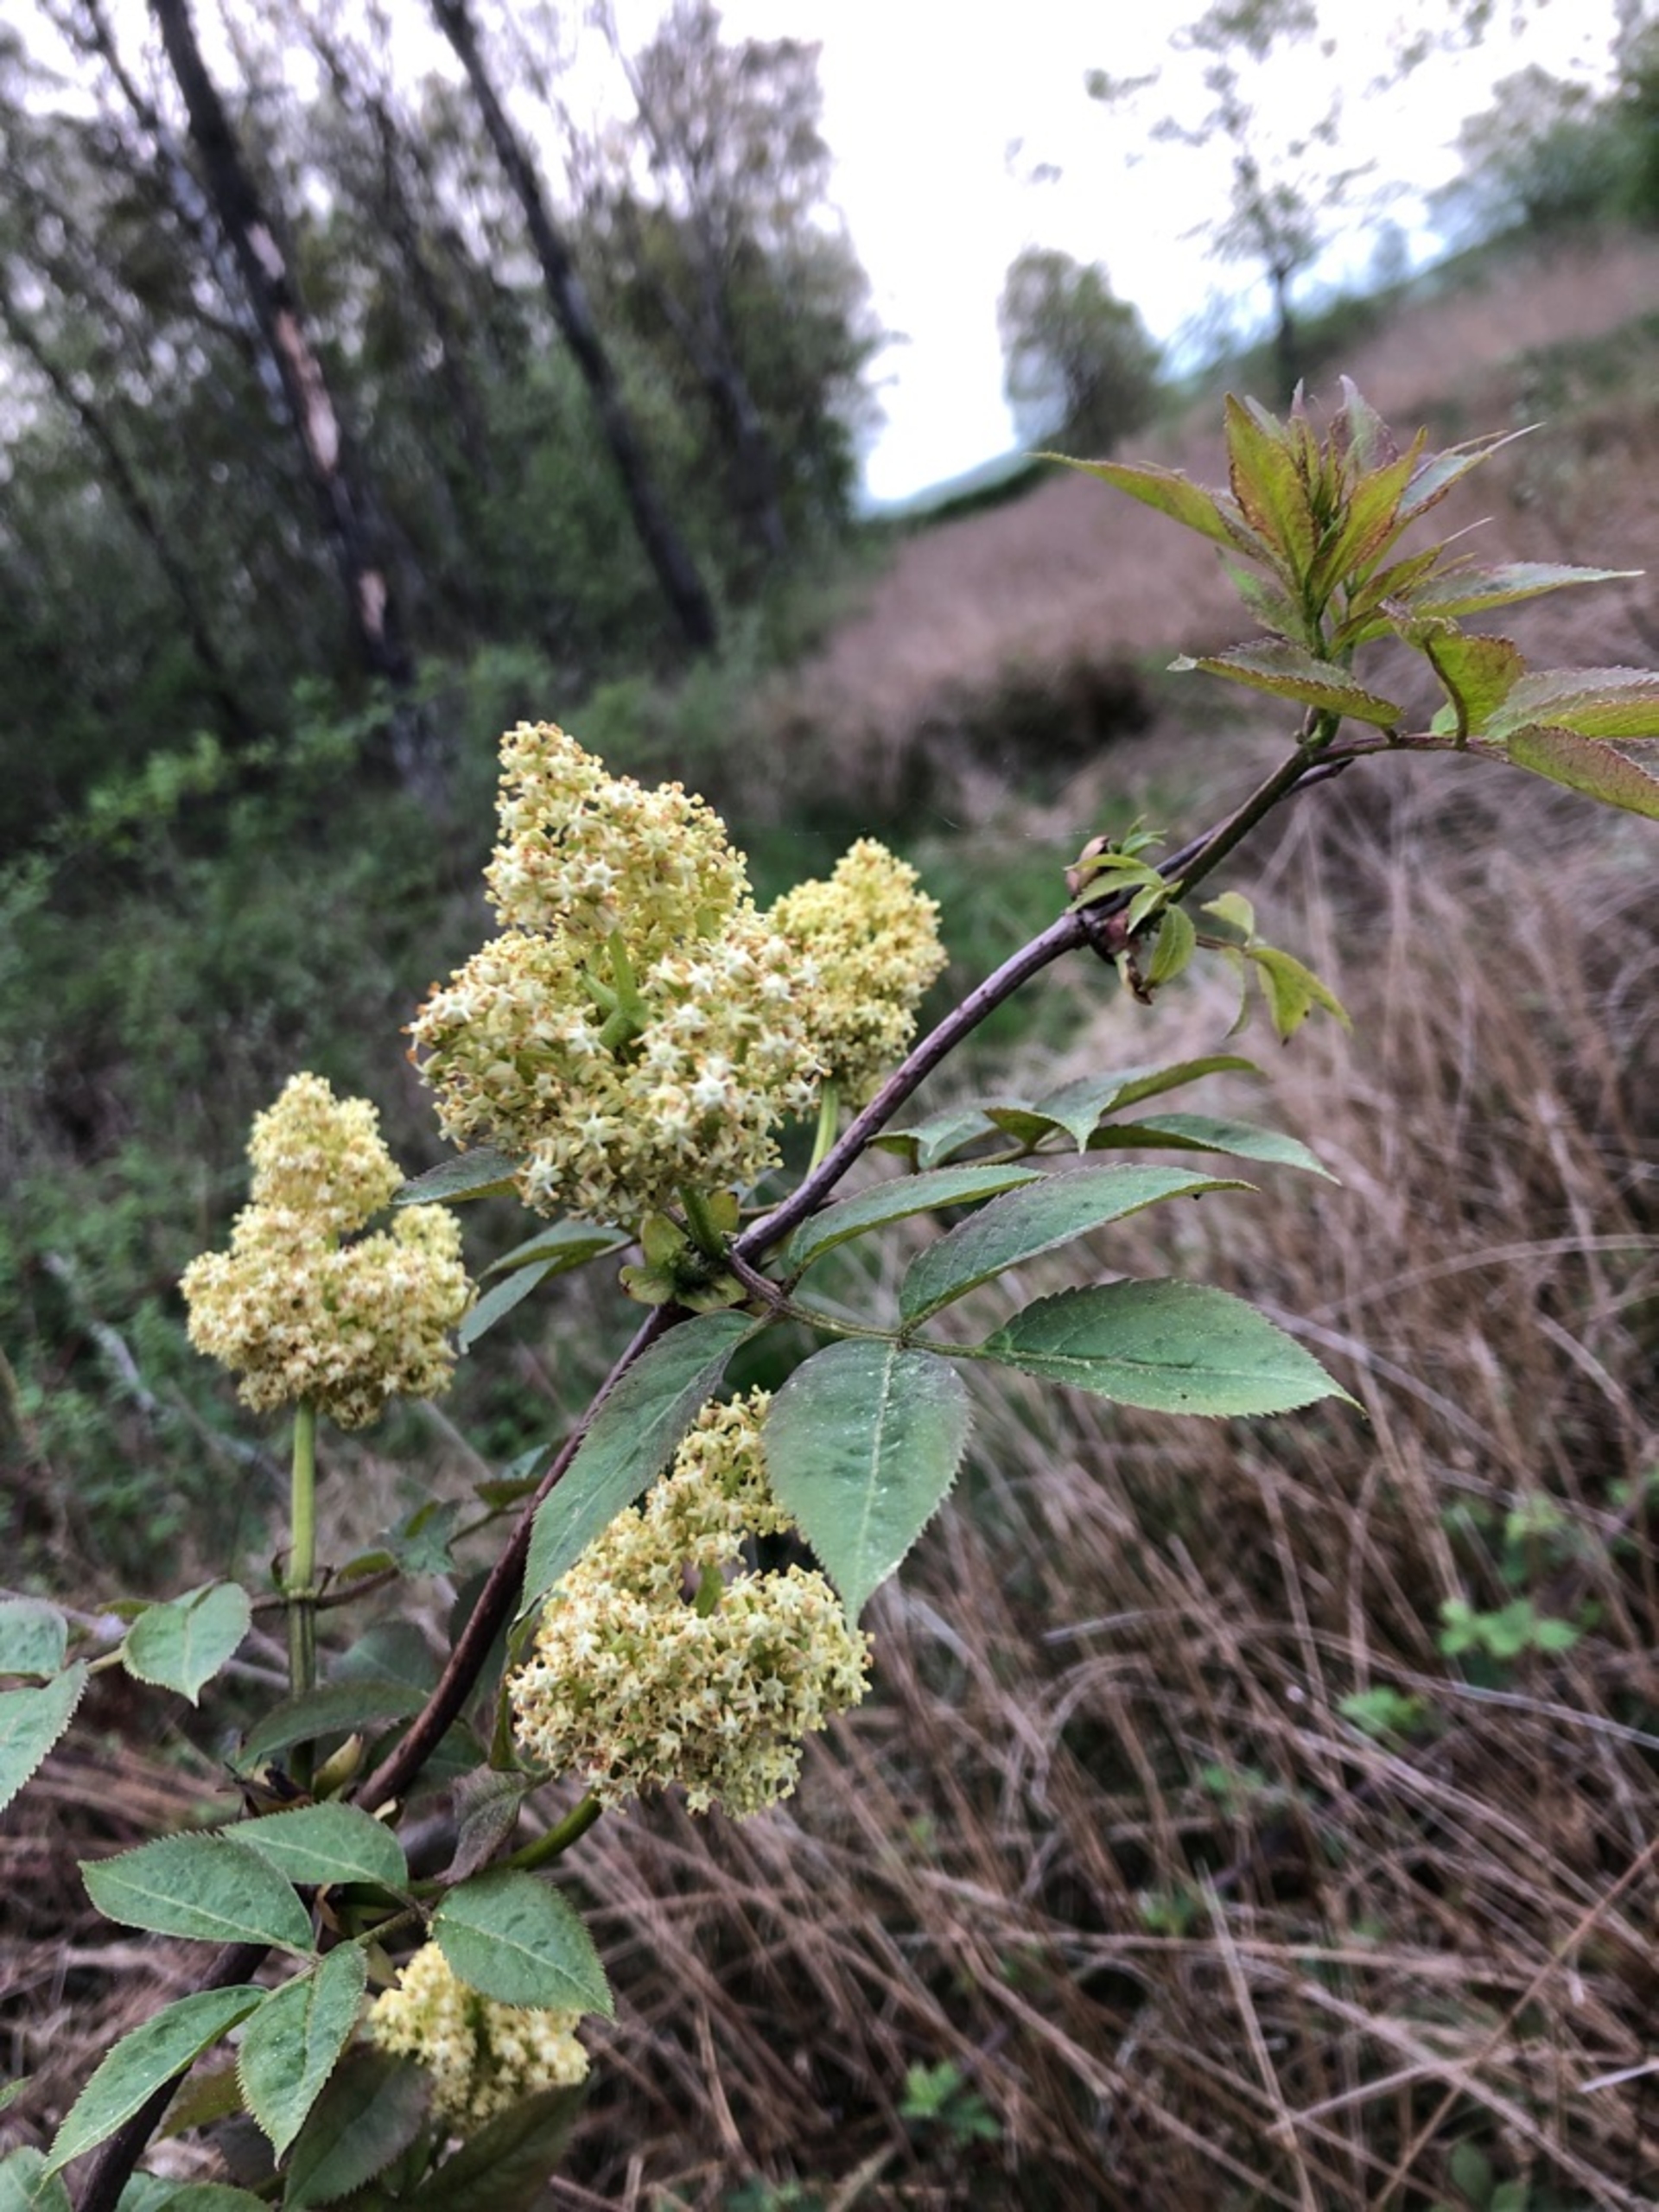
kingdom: Plantae
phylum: Tracheophyta
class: Magnoliopsida
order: Dipsacales
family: Viburnaceae
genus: Sambucus
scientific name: Sambucus racemosa
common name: Drue-hyld
